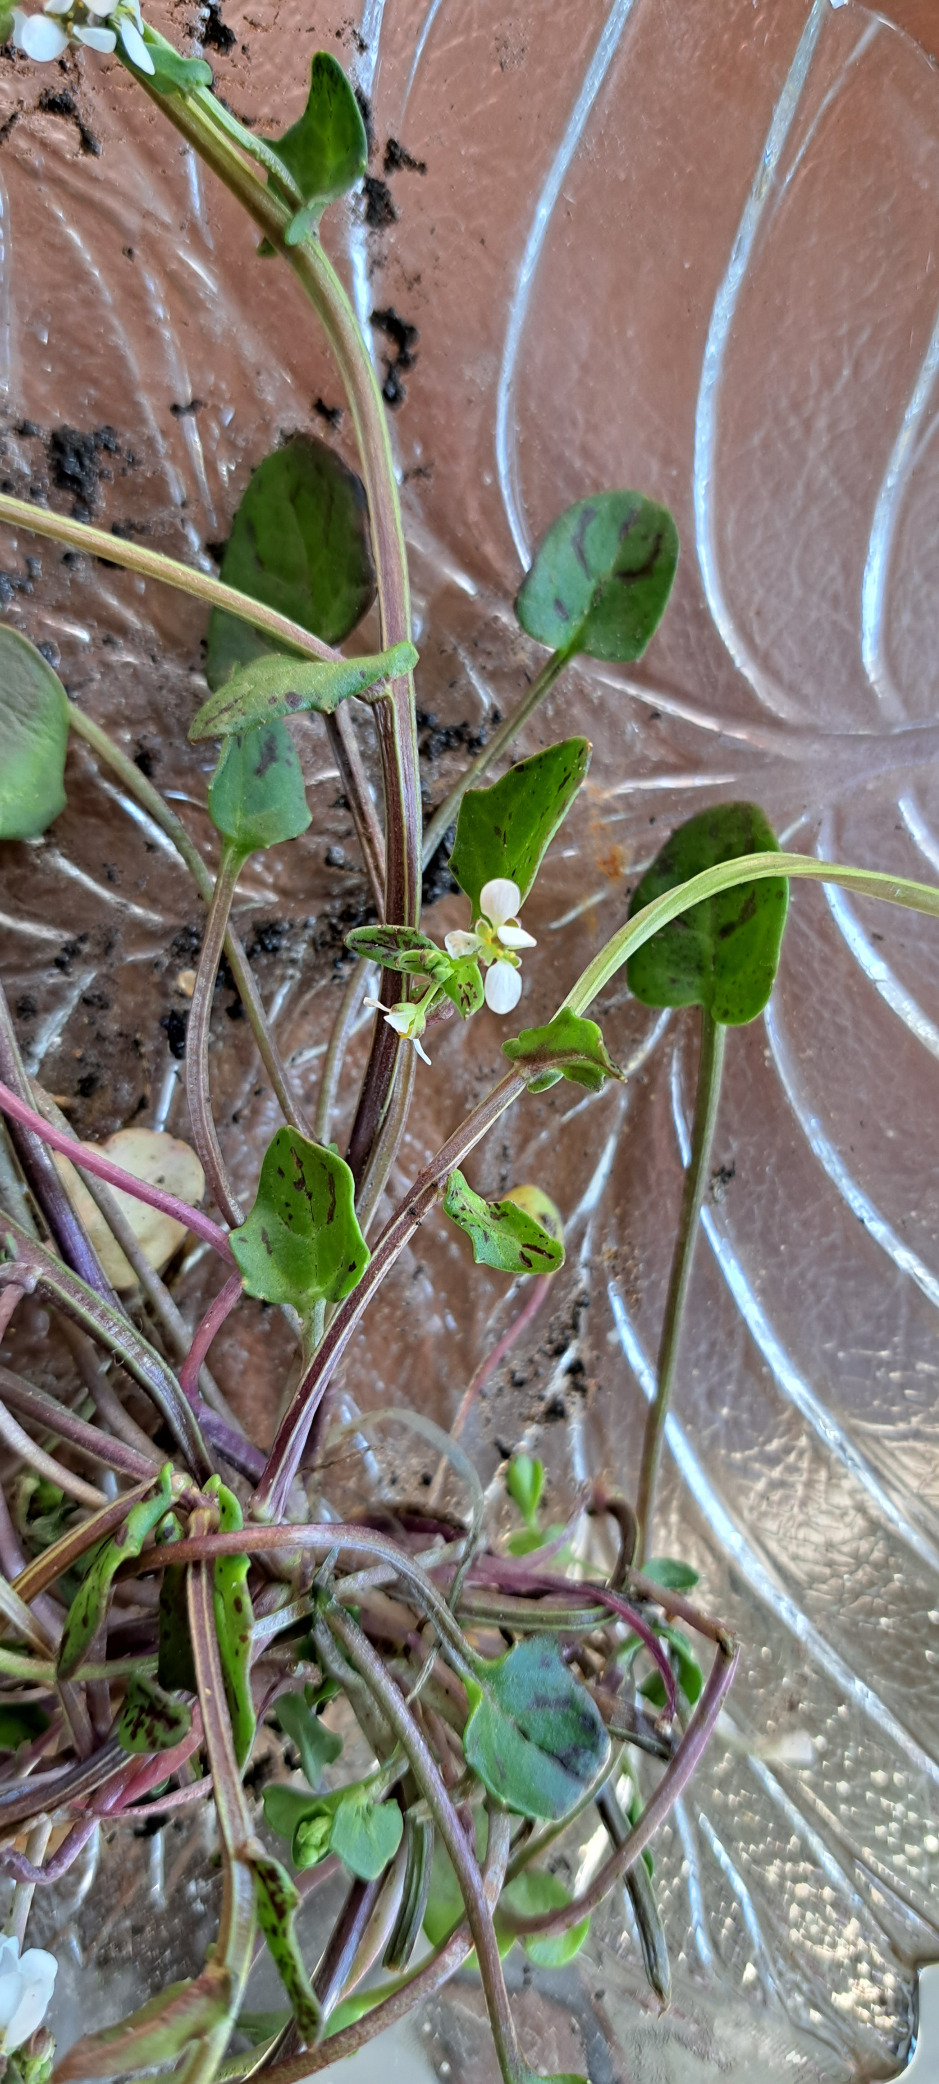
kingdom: Plantae
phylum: Tracheophyta
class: Magnoliopsida
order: Brassicales
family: Brassicaceae
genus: Cochlearia
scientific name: Cochlearia danica
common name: Dansk kokleare
